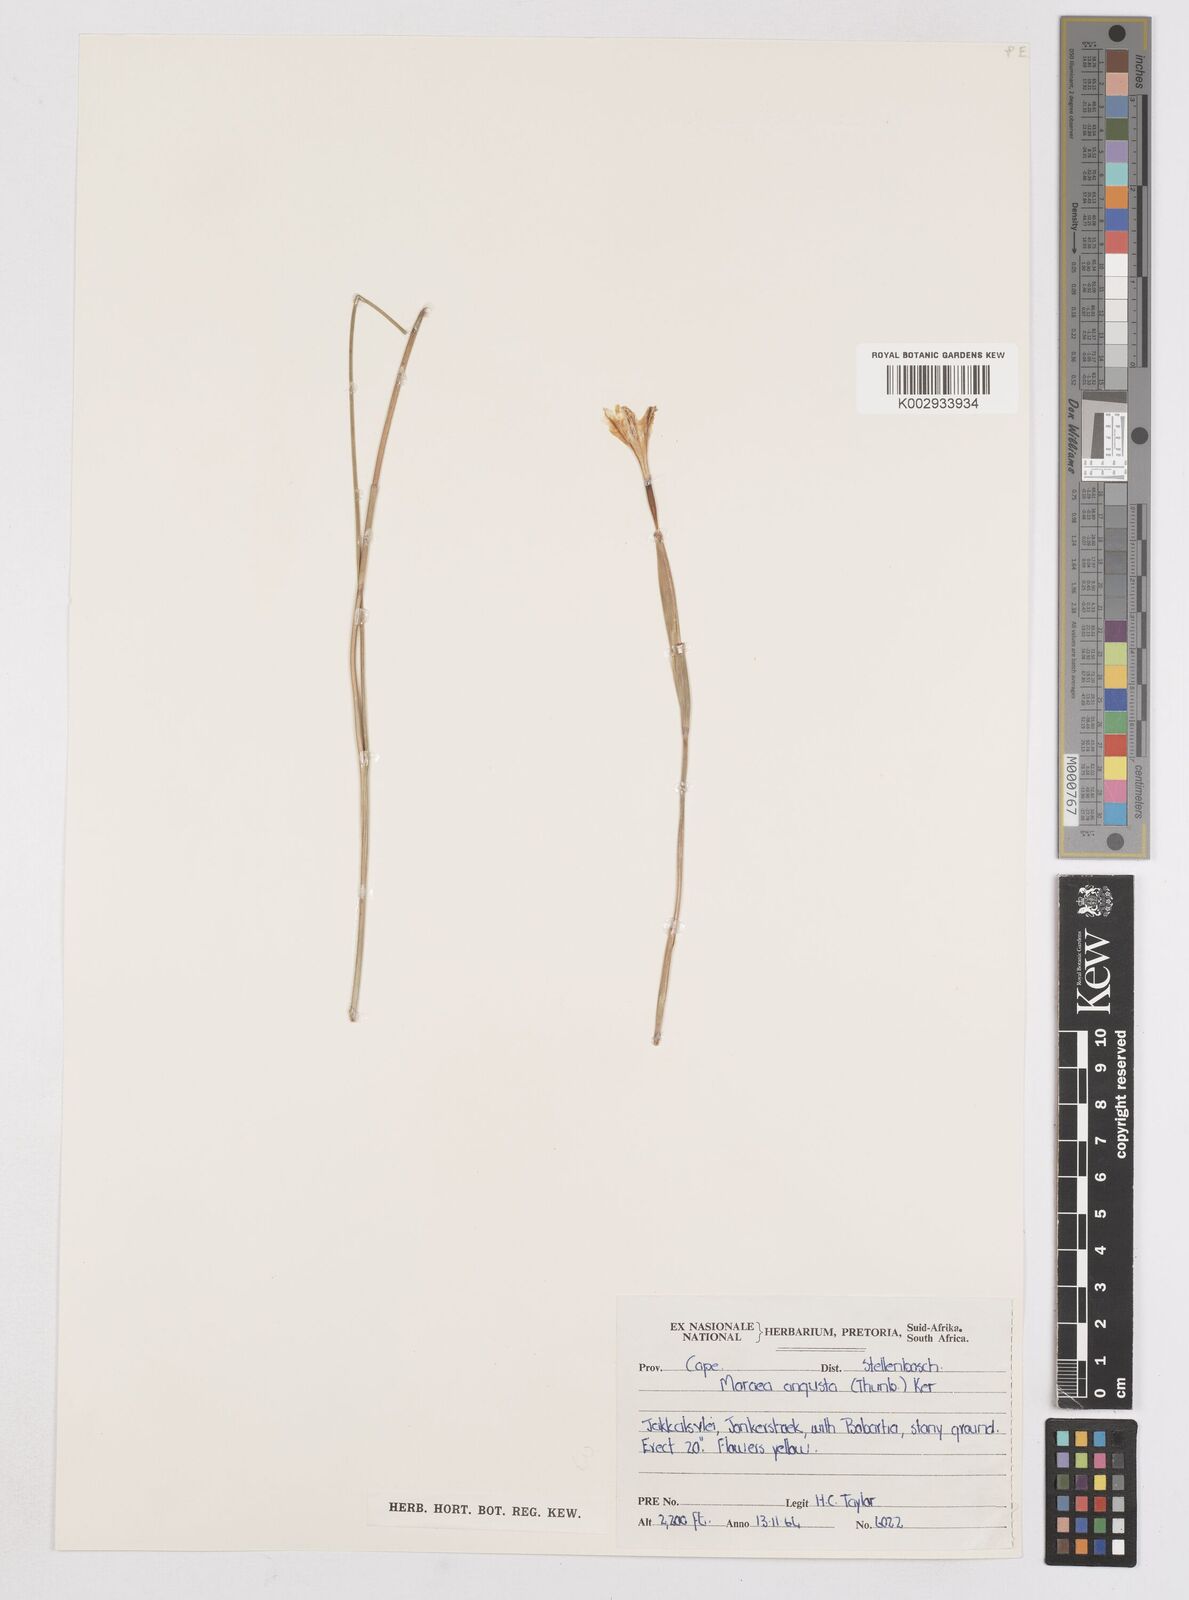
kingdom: Plantae
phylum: Tracheophyta
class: Liliopsida
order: Asparagales
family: Iridaceae
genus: Moraea
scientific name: Moraea angusta
